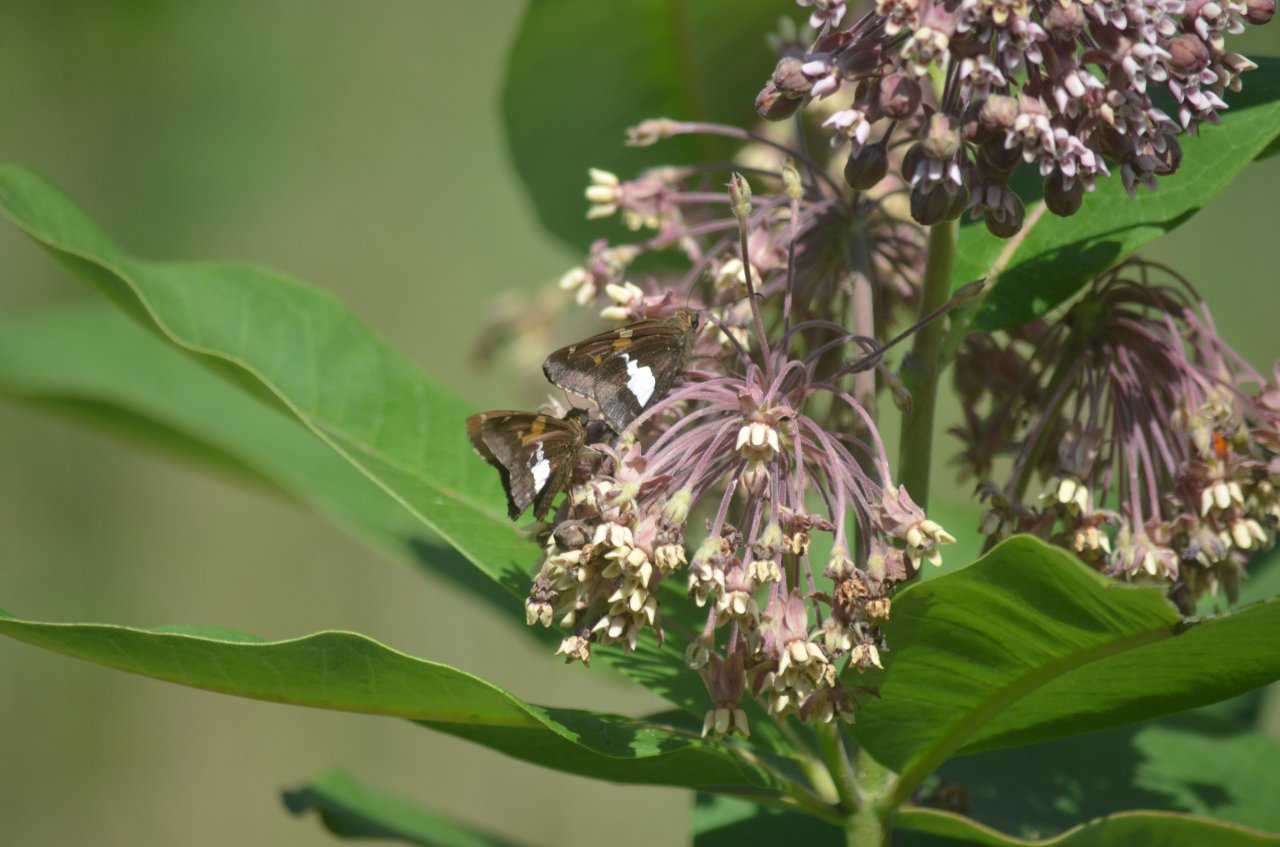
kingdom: Animalia
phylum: Arthropoda
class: Insecta
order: Lepidoptera
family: Hesperiidae
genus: Epargyreus
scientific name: Epargyreus clarus
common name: Silver-spotted Skipper
